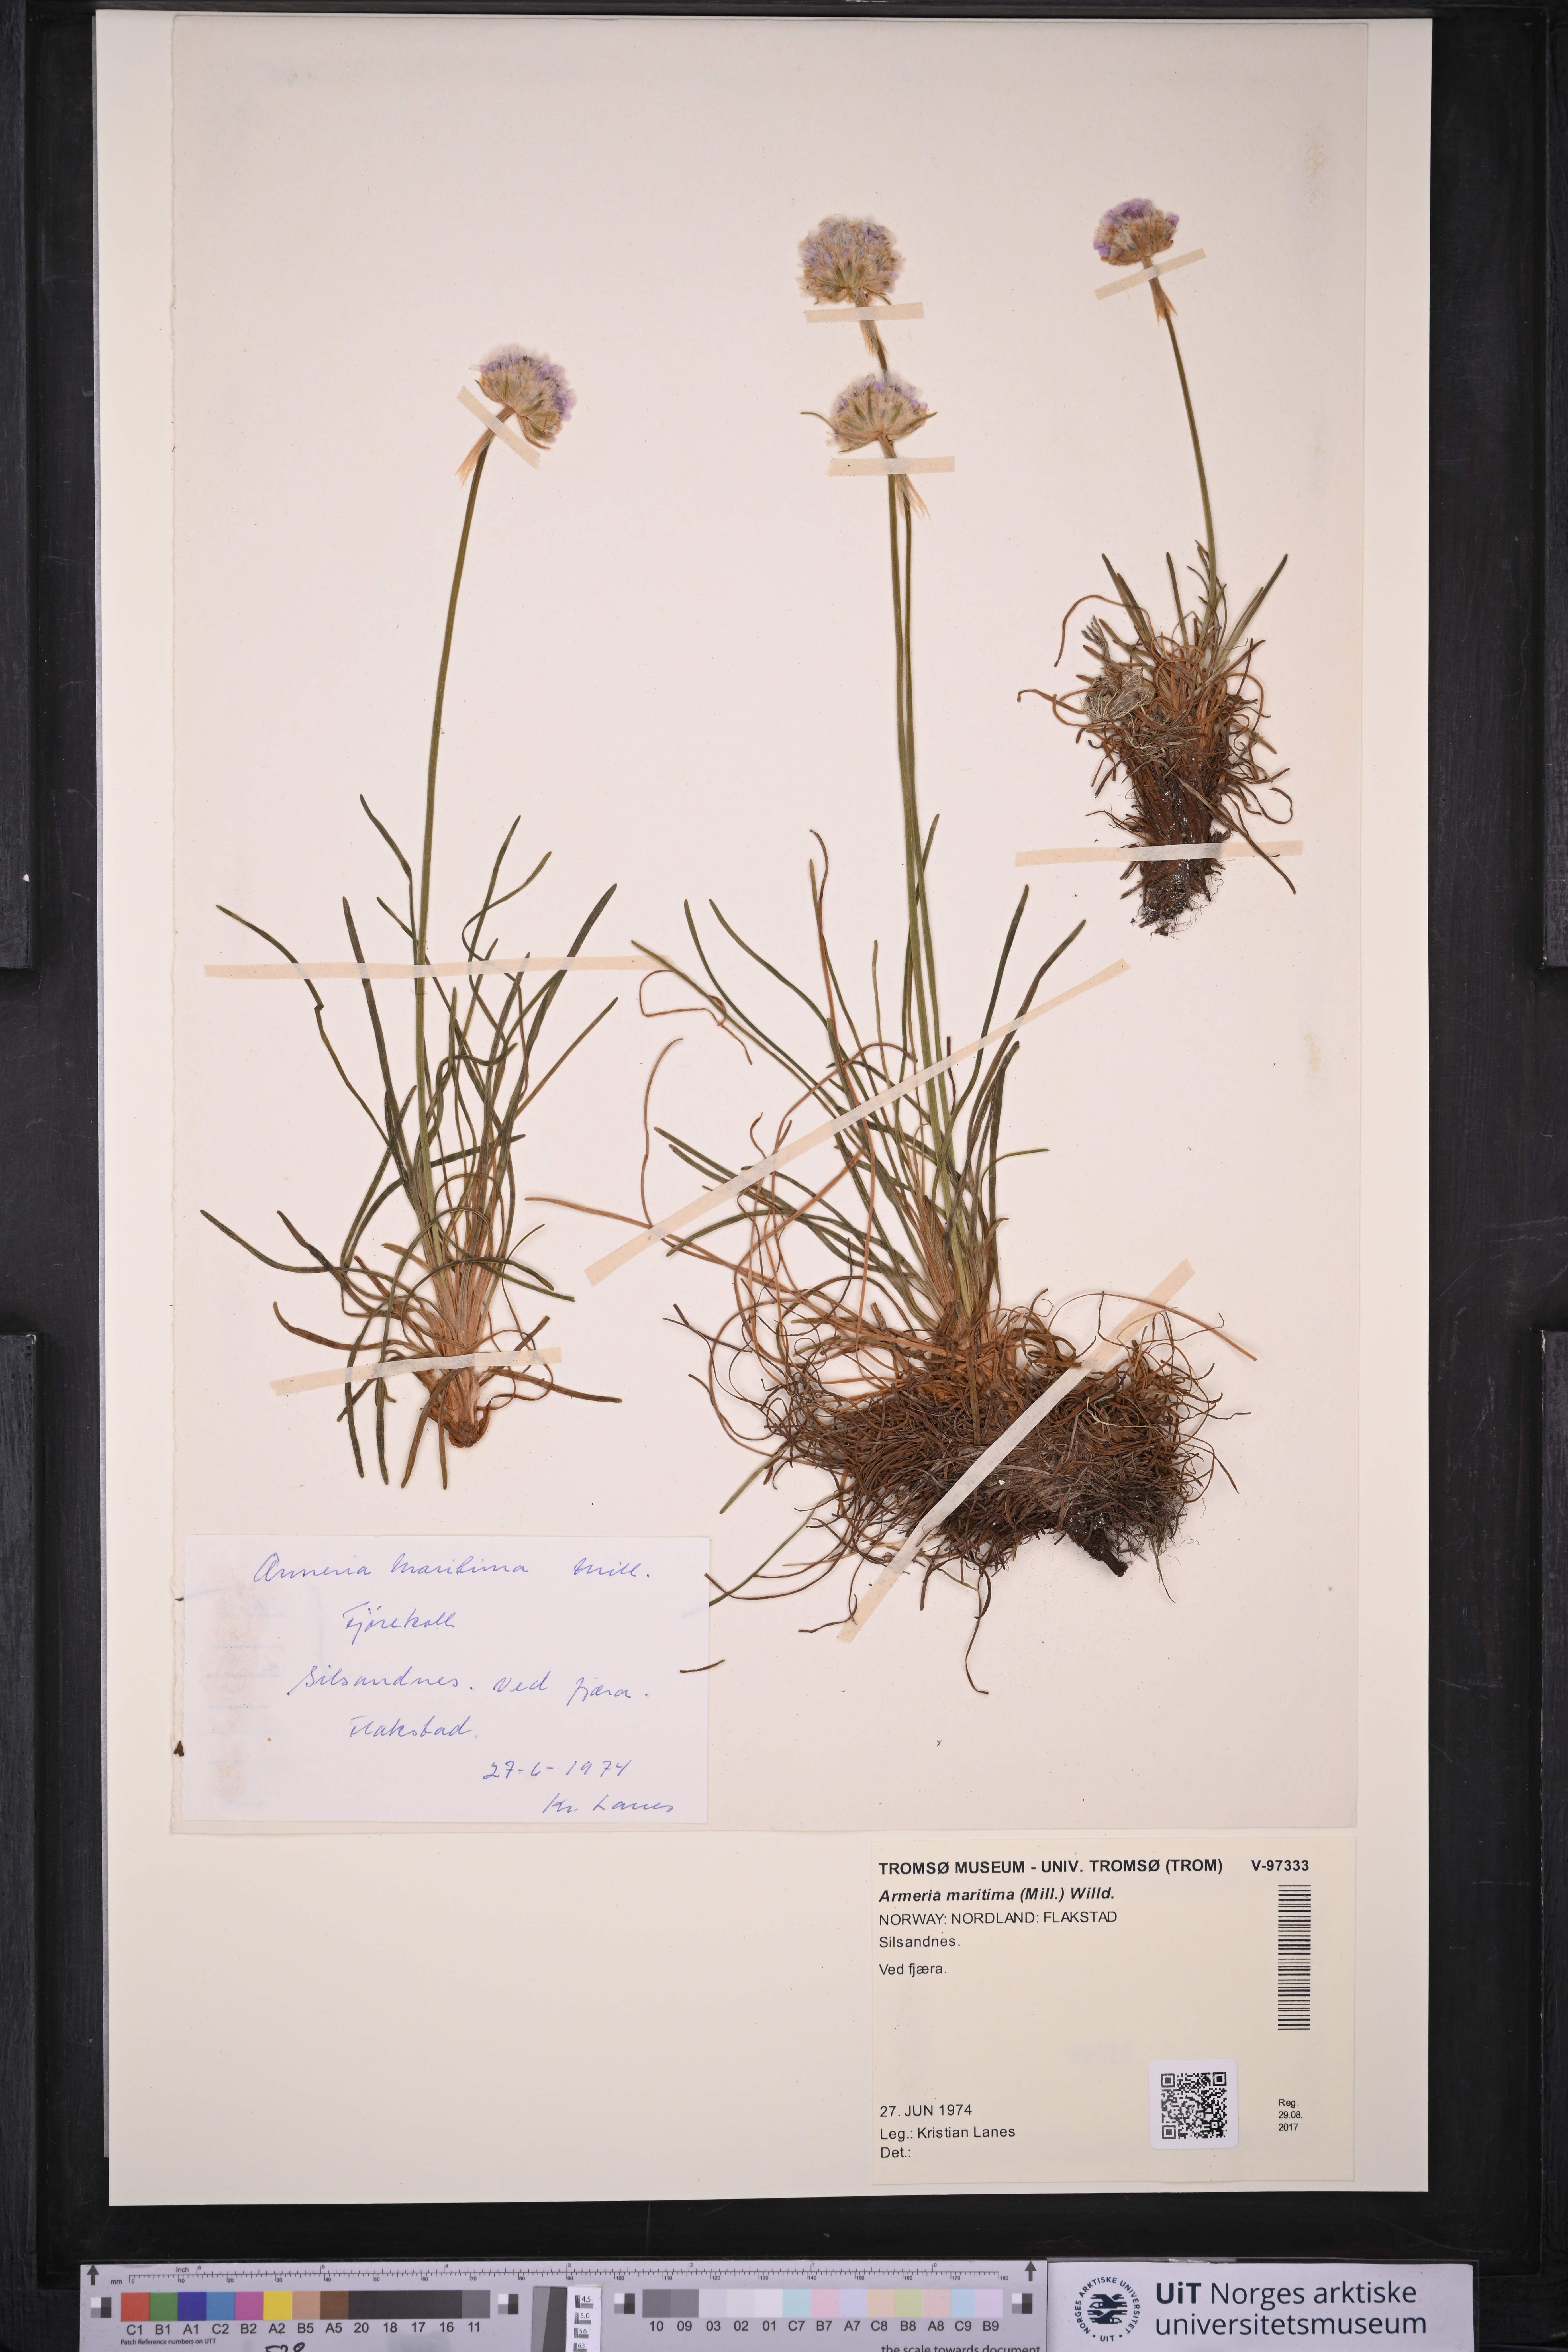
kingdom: Plantae
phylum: Tracheophyta
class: Magnoliopsida
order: Caryophyllales
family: Plumbaginaceae
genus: Armeria
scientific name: Armeria maritima
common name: Thrift
